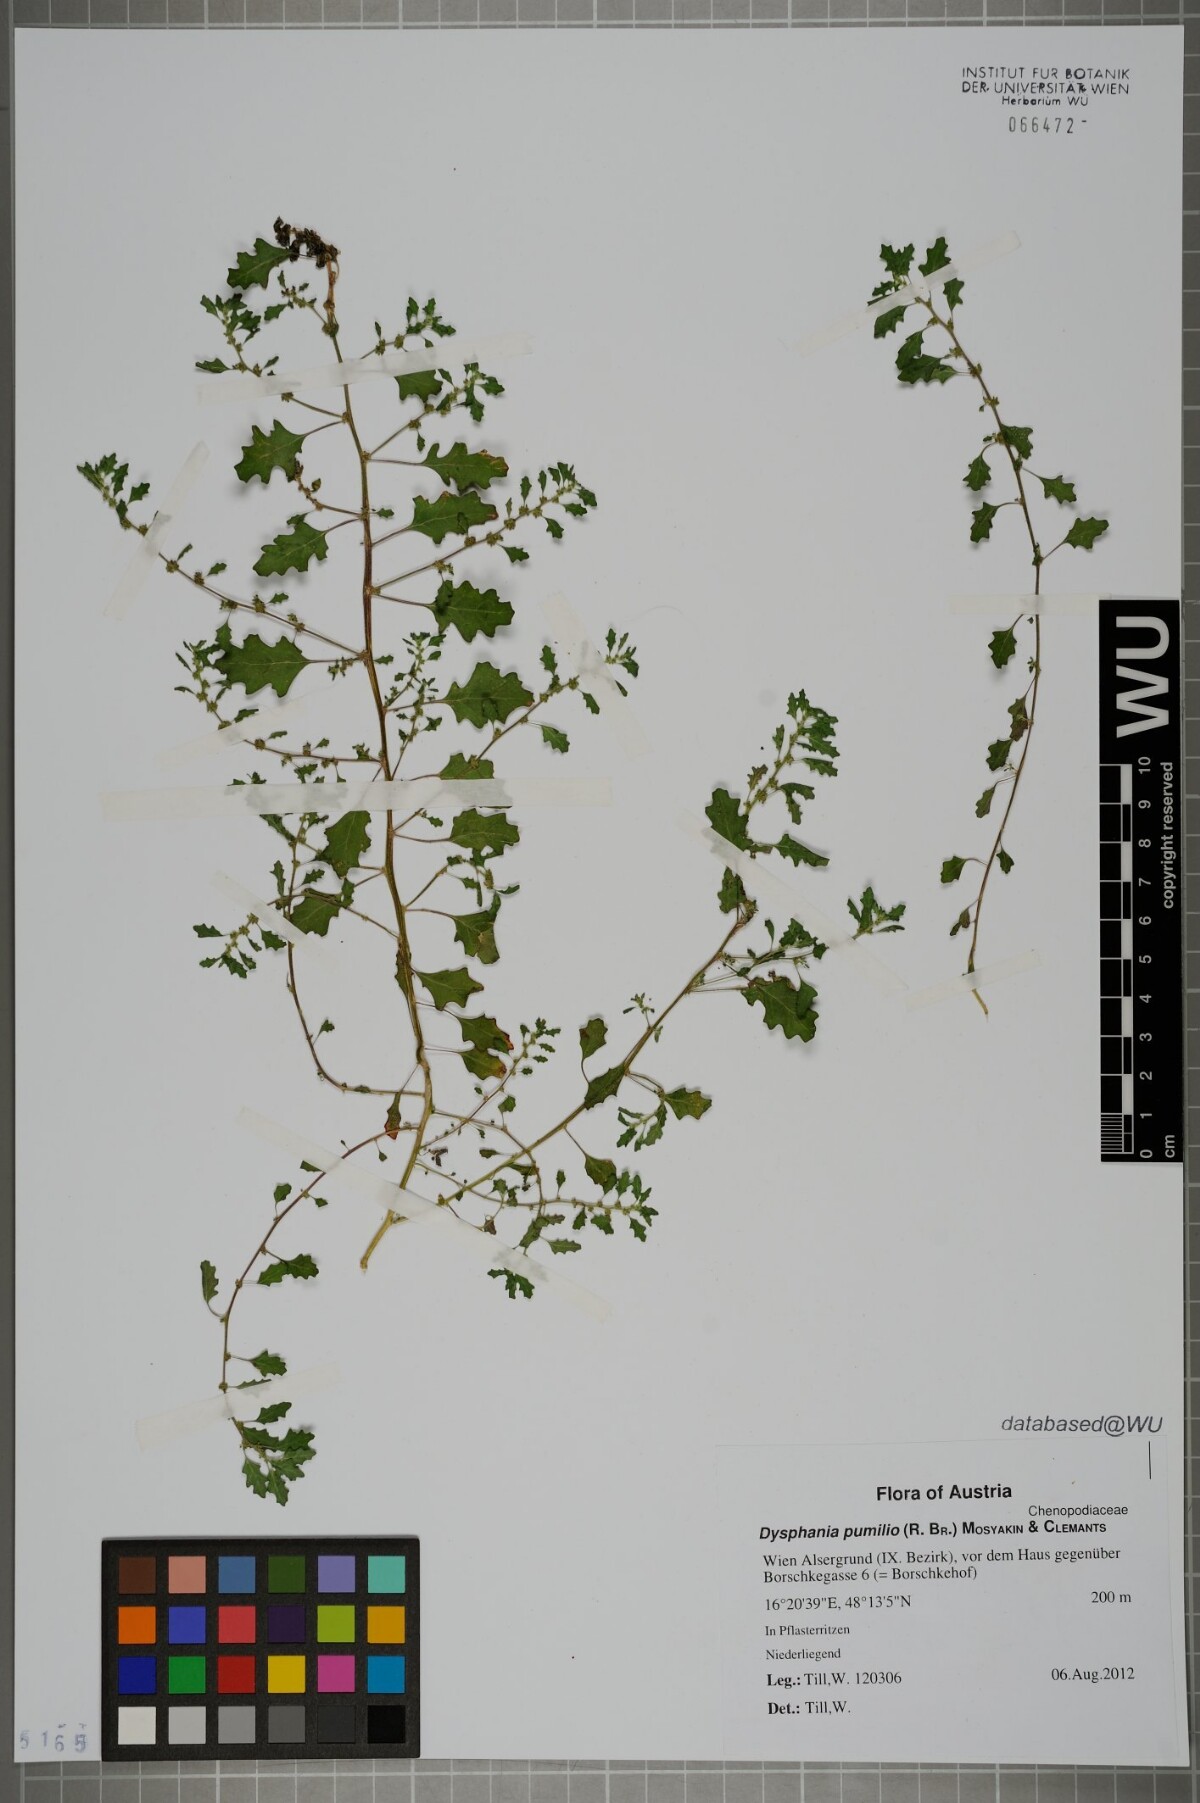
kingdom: Plantae
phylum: Tracheophyta
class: Magnoliopsida
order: Caryophyllales
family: Amaranthaceae
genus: Dysphania
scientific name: Dysphania pumilio
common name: Clammy goosefoot
